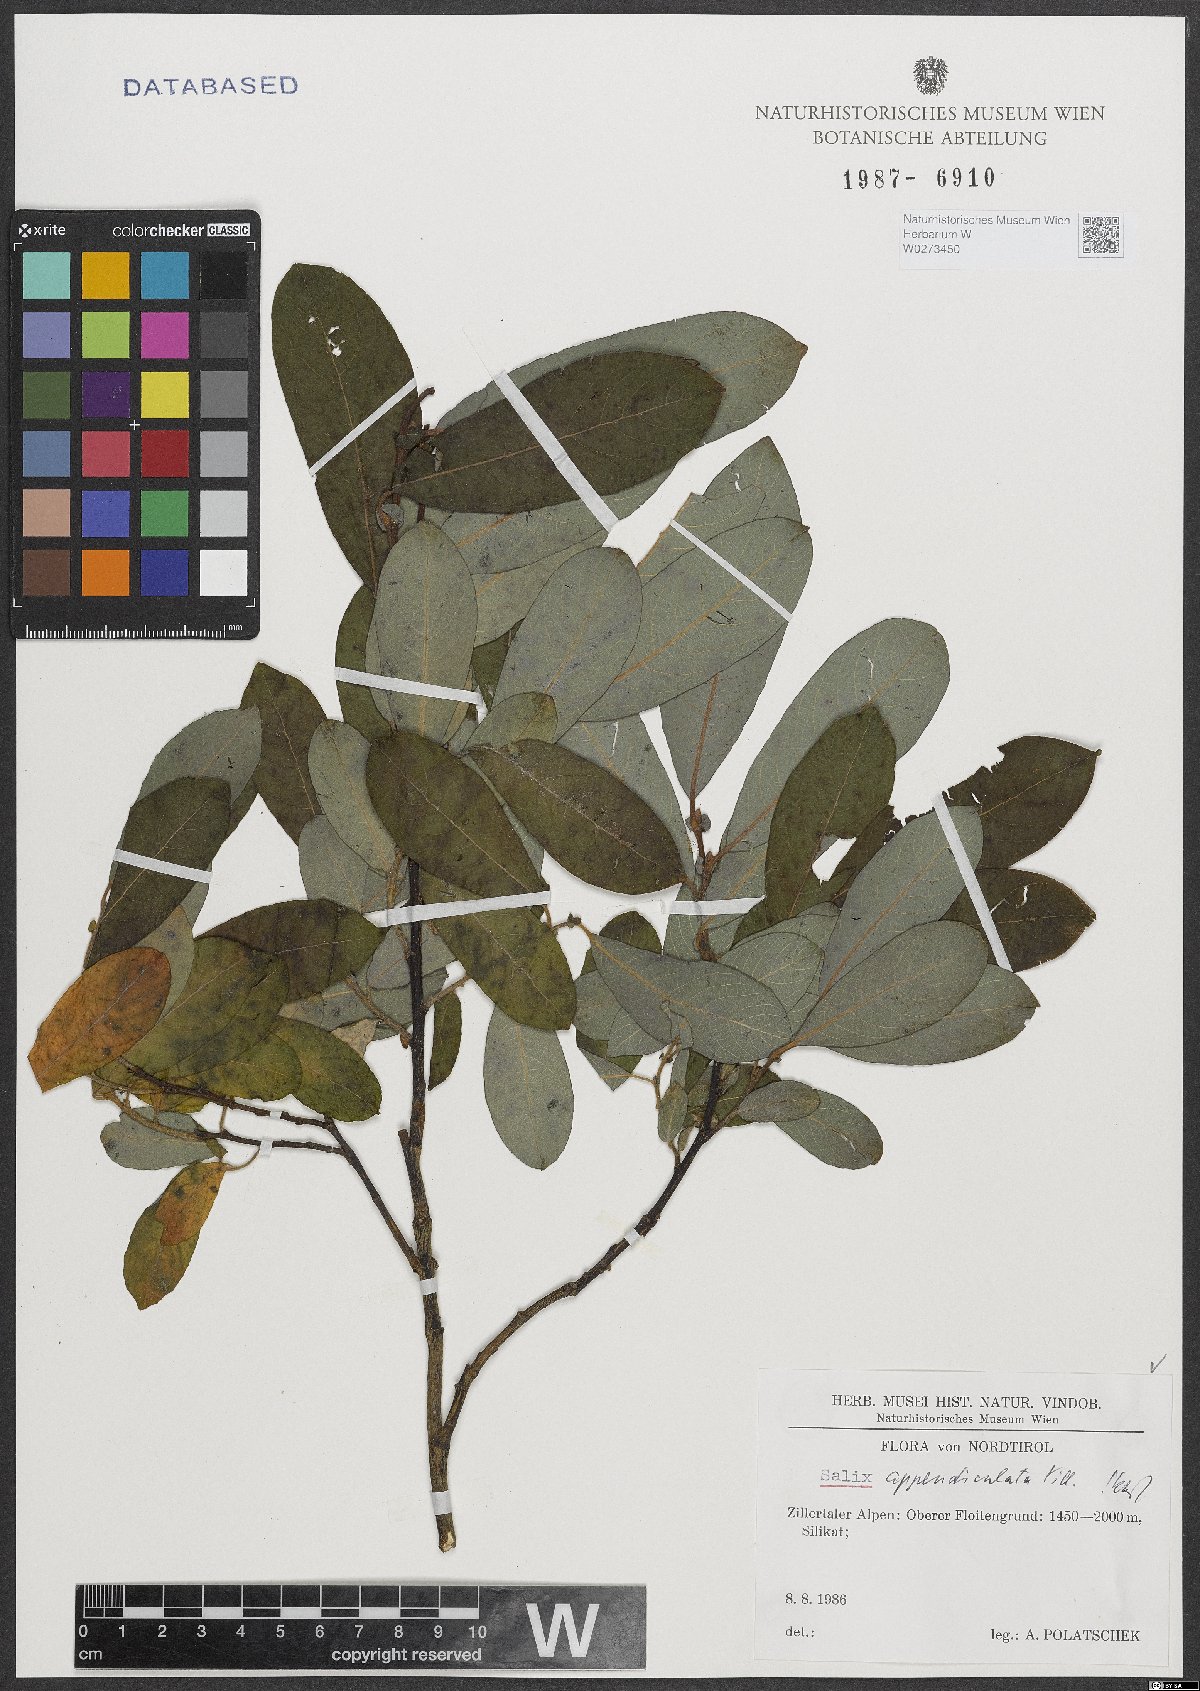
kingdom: Plantae
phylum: Tracheophyta
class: Magnoliopsida
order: Malpighiales
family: Salicaceae
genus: Salix
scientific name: Salix appendiculata
